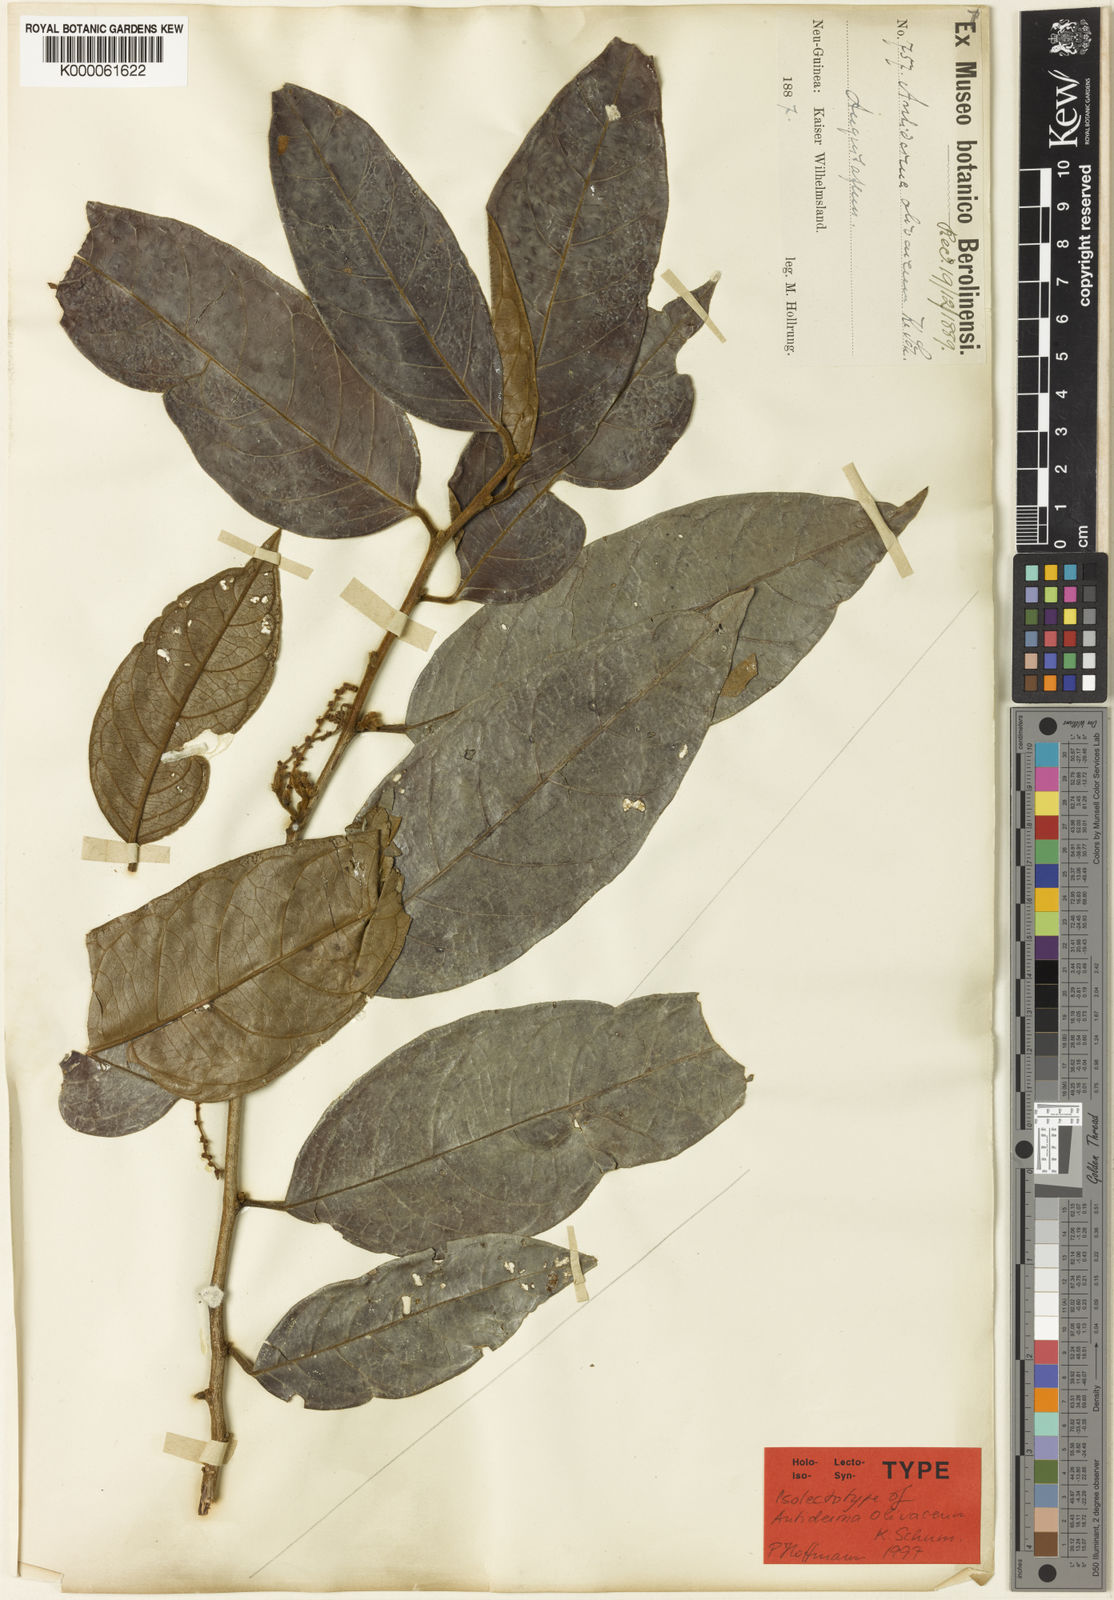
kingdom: Plantae
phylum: Tracheophyta
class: Magnoliopsida
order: Malpighiales
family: Phyllanthaceae
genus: Antidesma
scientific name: Antidesma excavatum
